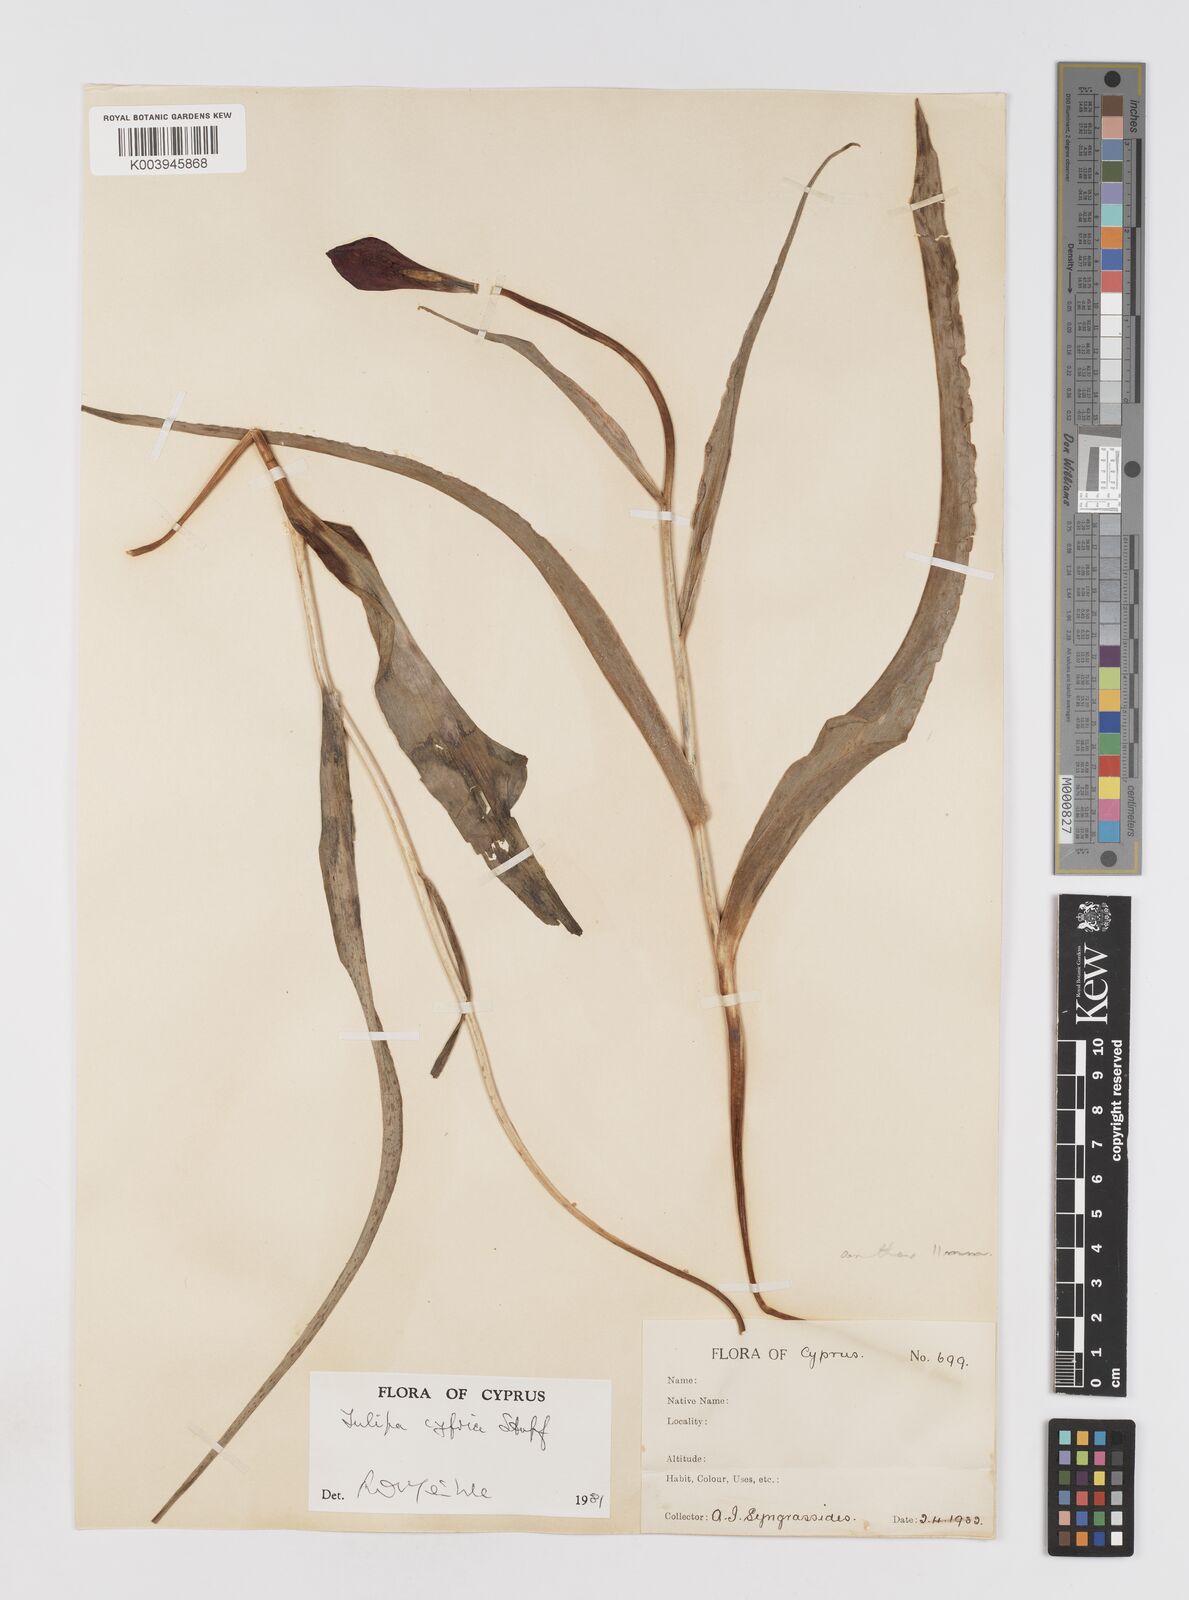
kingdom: Plantae
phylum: Tracheophyta
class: Liliopsida
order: Liliales
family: Liliaceae
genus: Tulipa
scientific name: Tulipa cypria
